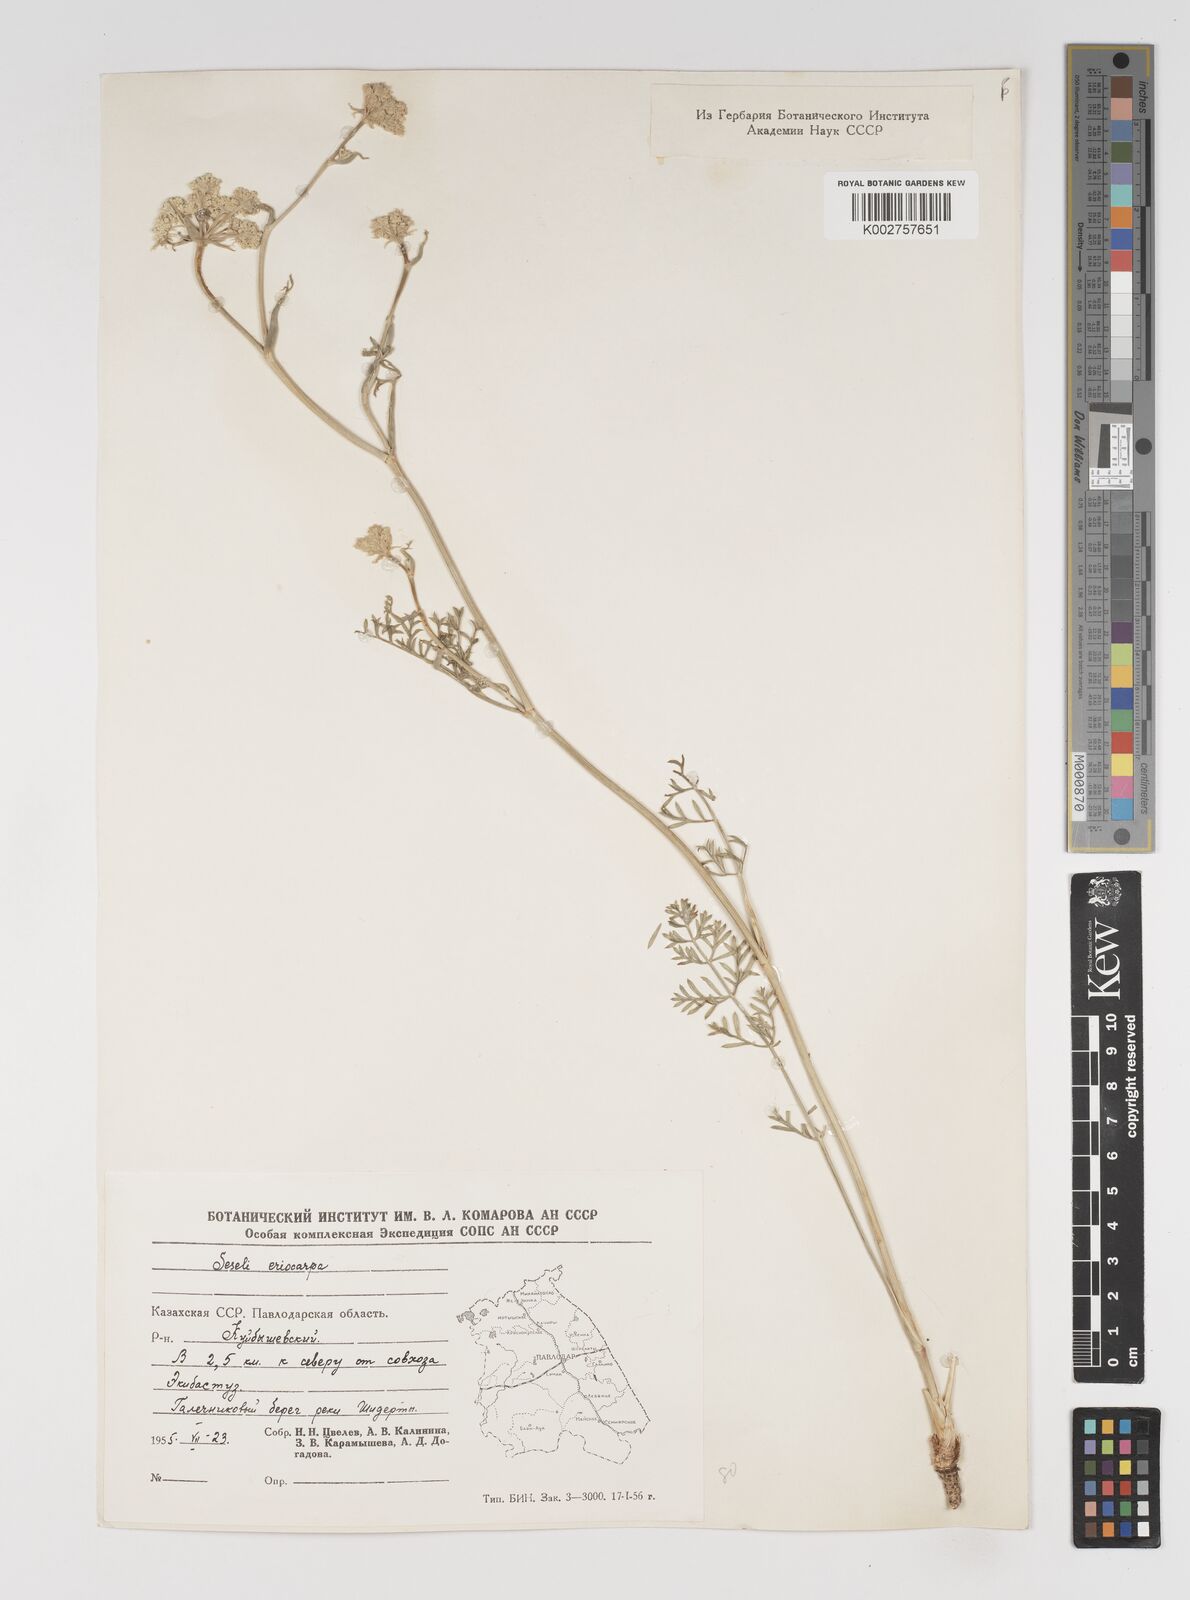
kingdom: Plantae
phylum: Tracheophyta
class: Magnoliopsida
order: Apiales
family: Apiaceae
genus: Seseli
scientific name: Seseli eriocarpum
